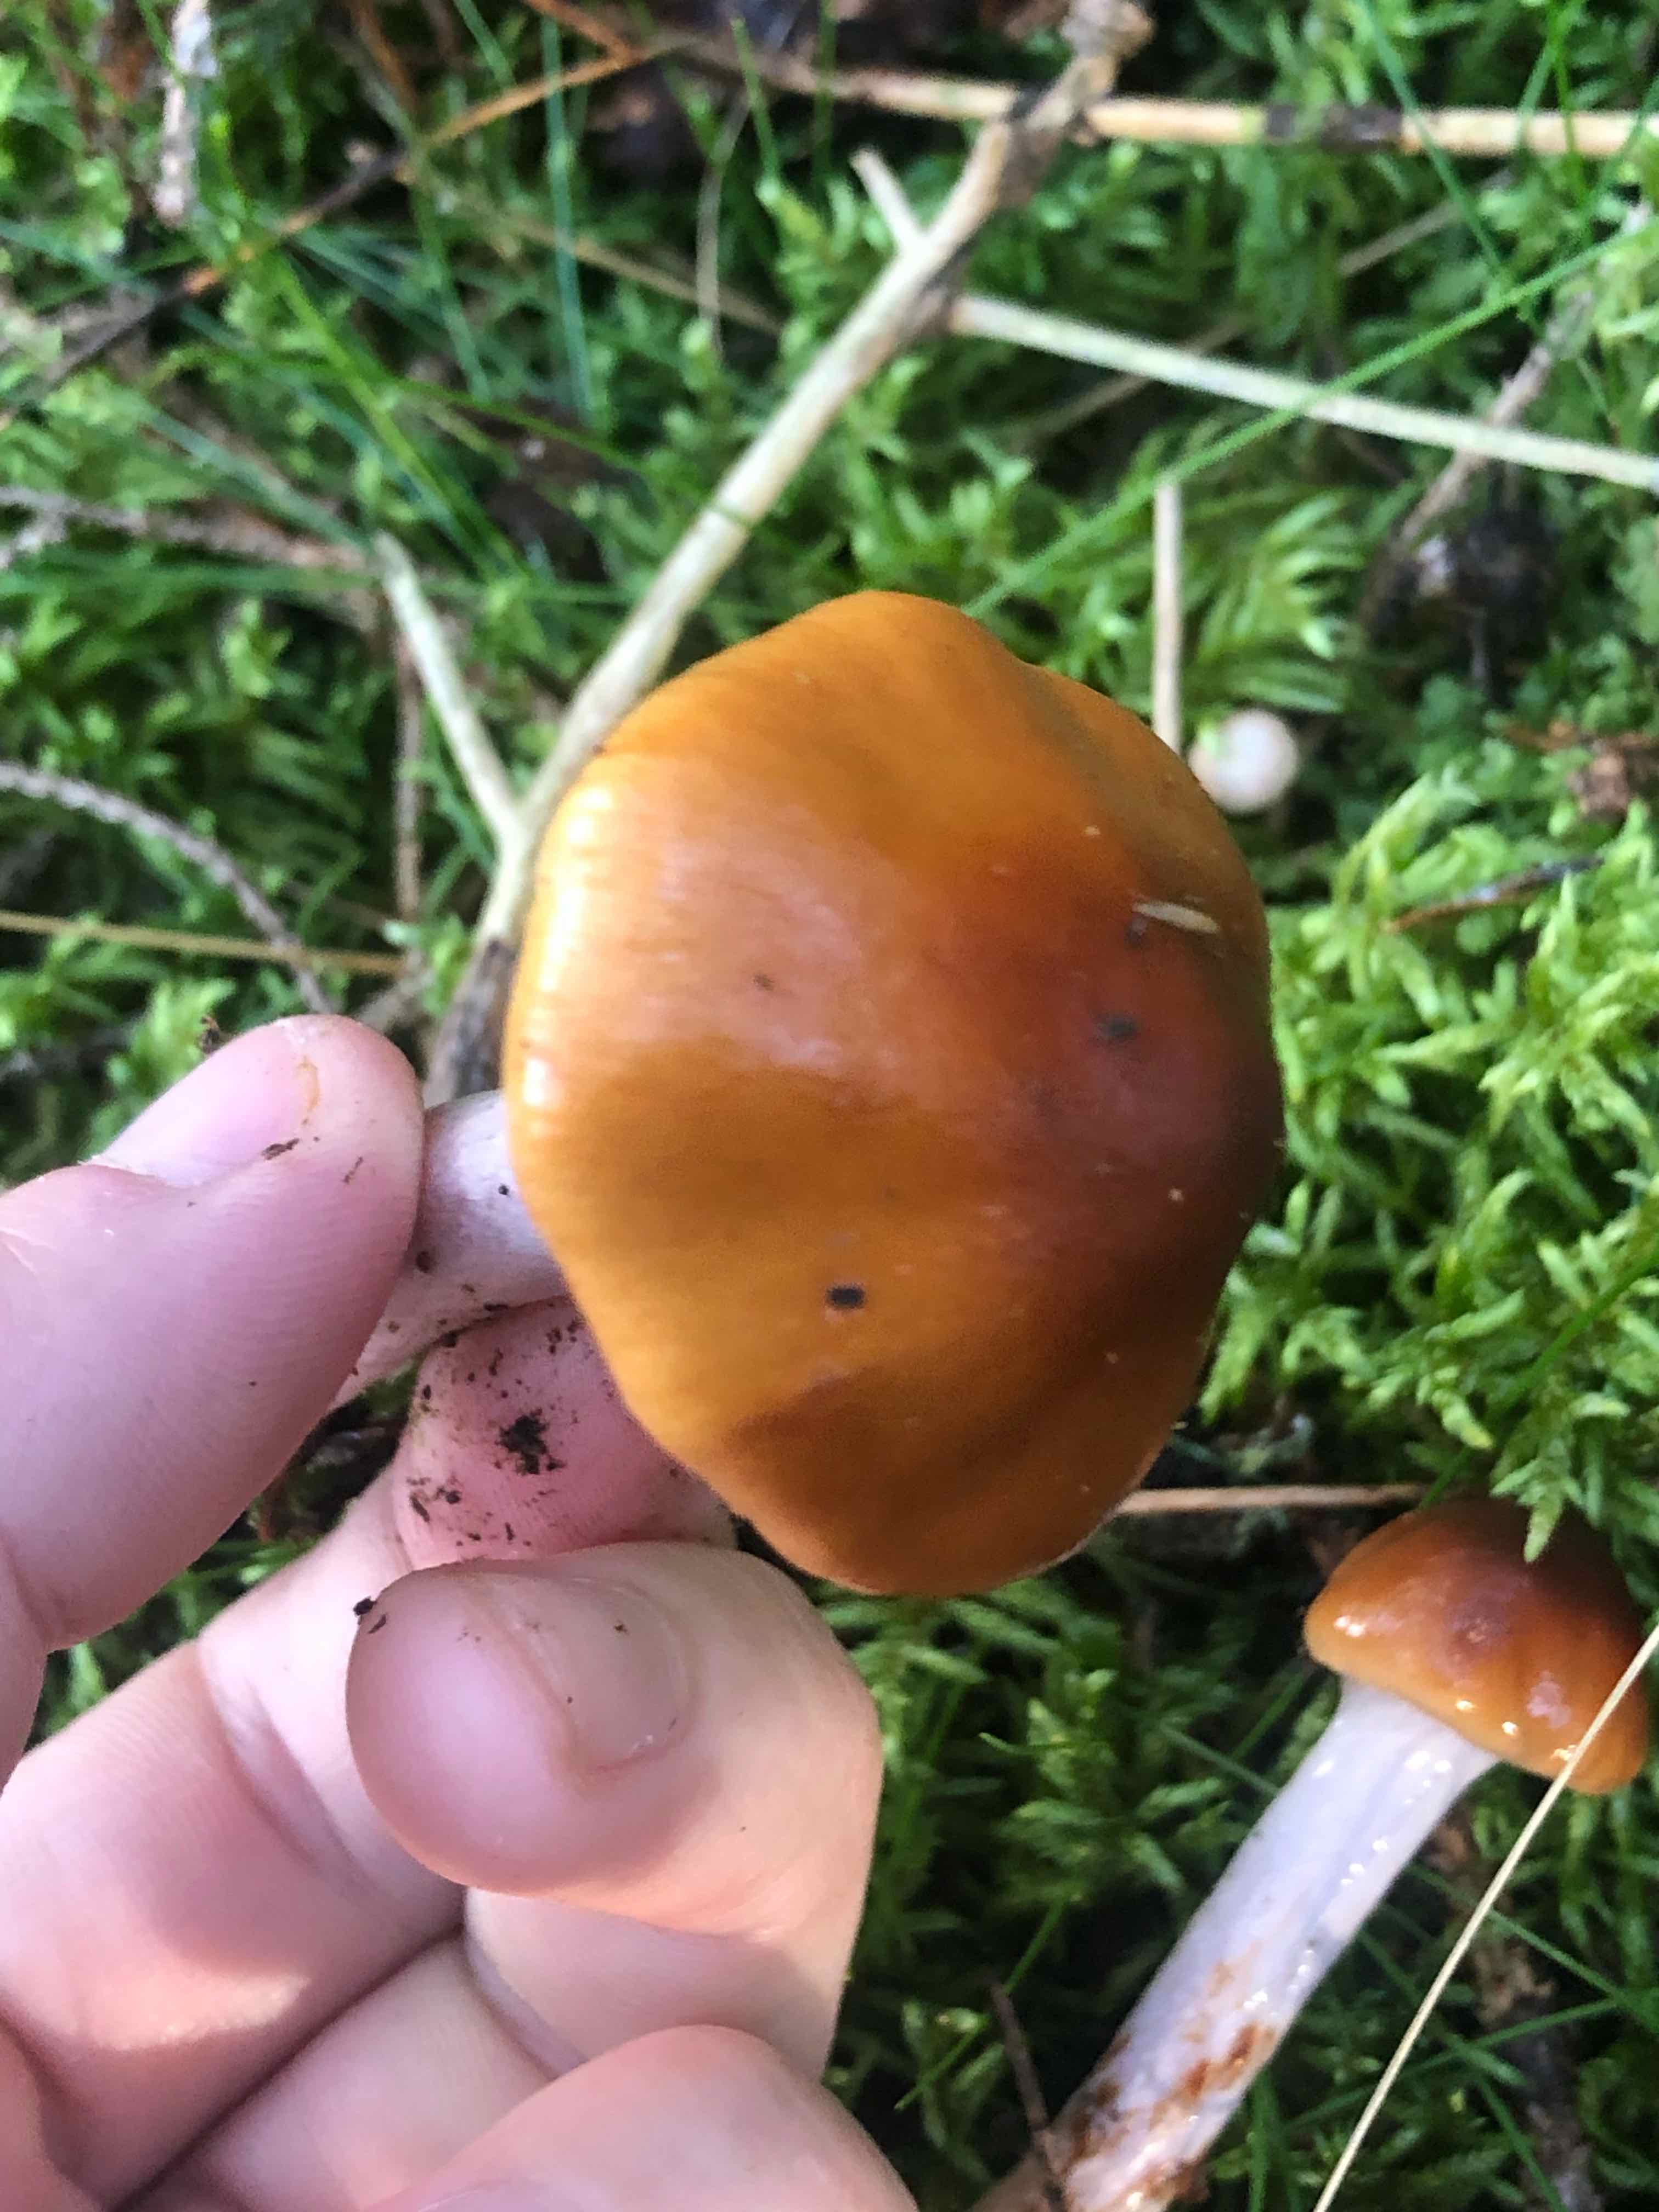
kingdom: Fungi
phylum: Basidiomycota
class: Agaricomycetes
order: Agaricales
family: Cortinariaceae
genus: Cortinarius
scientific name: Cortinarius collinitus
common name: spættet slørhat
